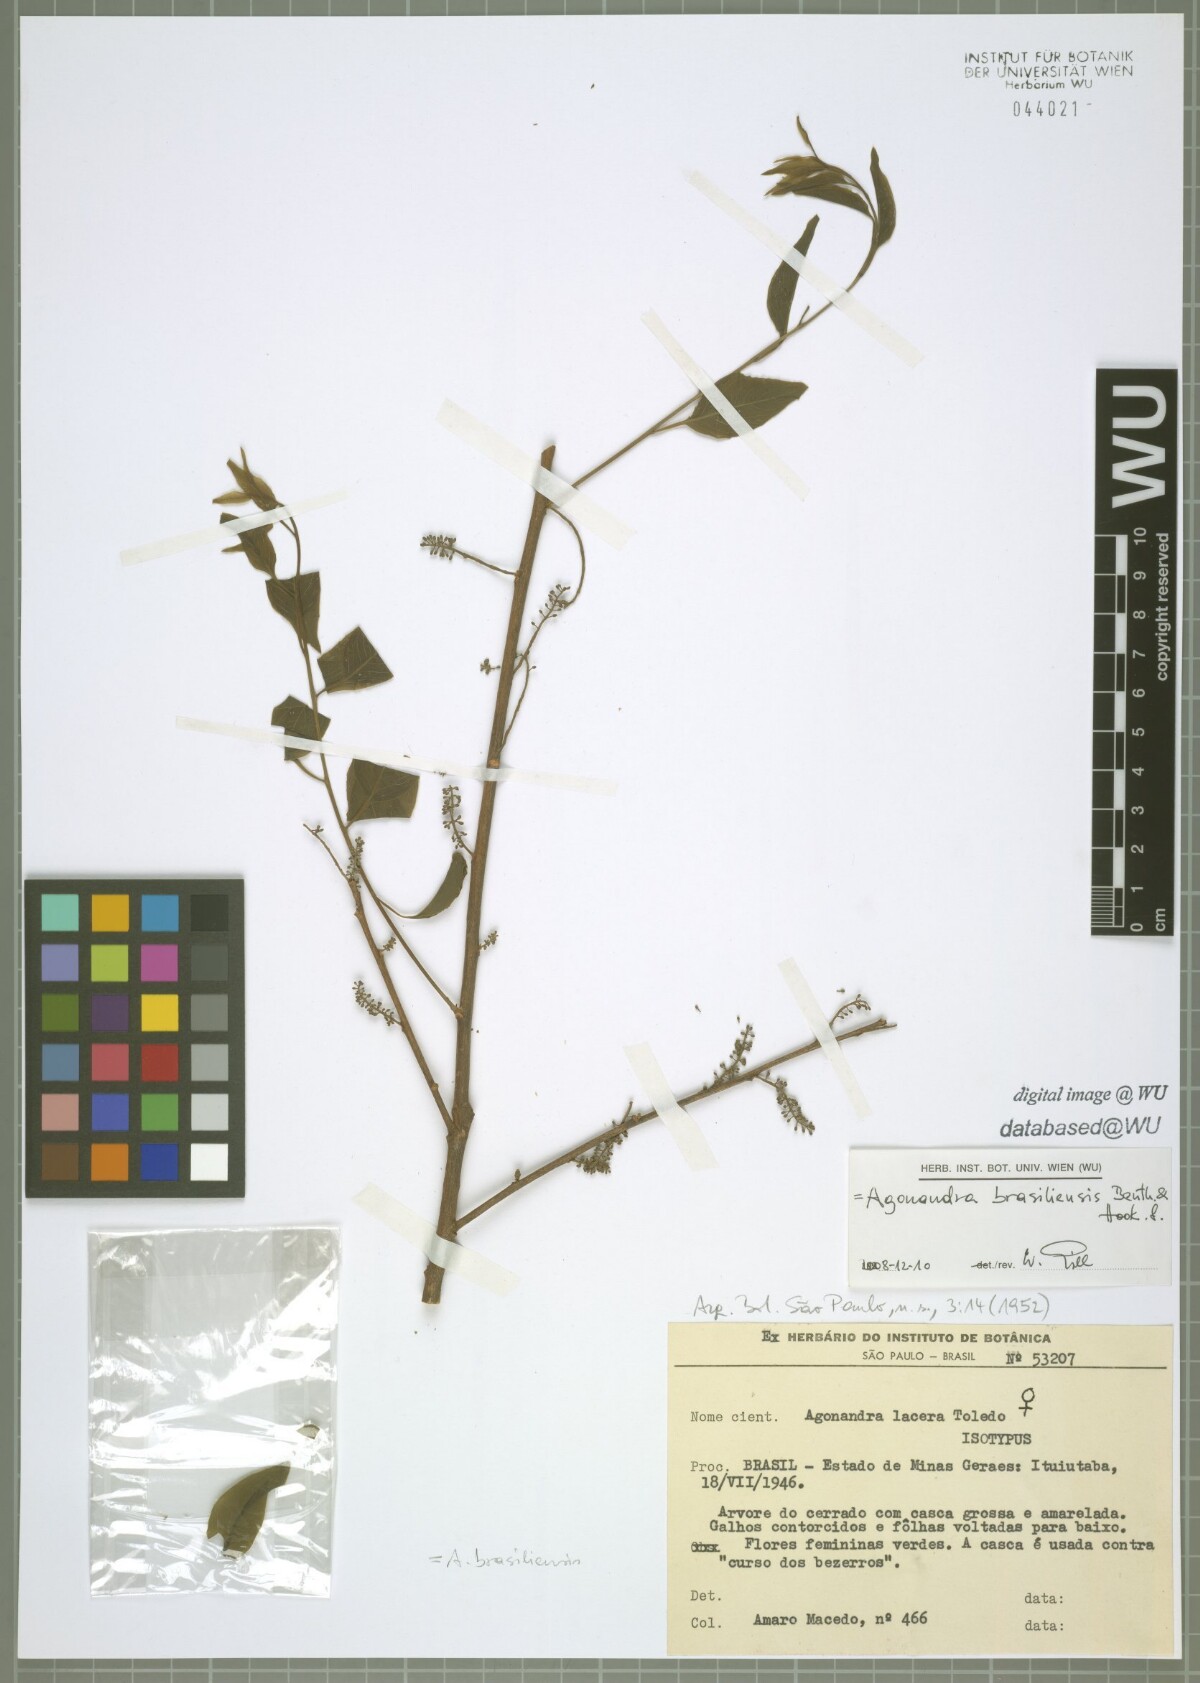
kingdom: Plantae
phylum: Tracheophyta
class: Magnoliopsida
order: Santalales
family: Opiliaceae
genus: Agonandra
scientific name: Agonandra brasiliensis
